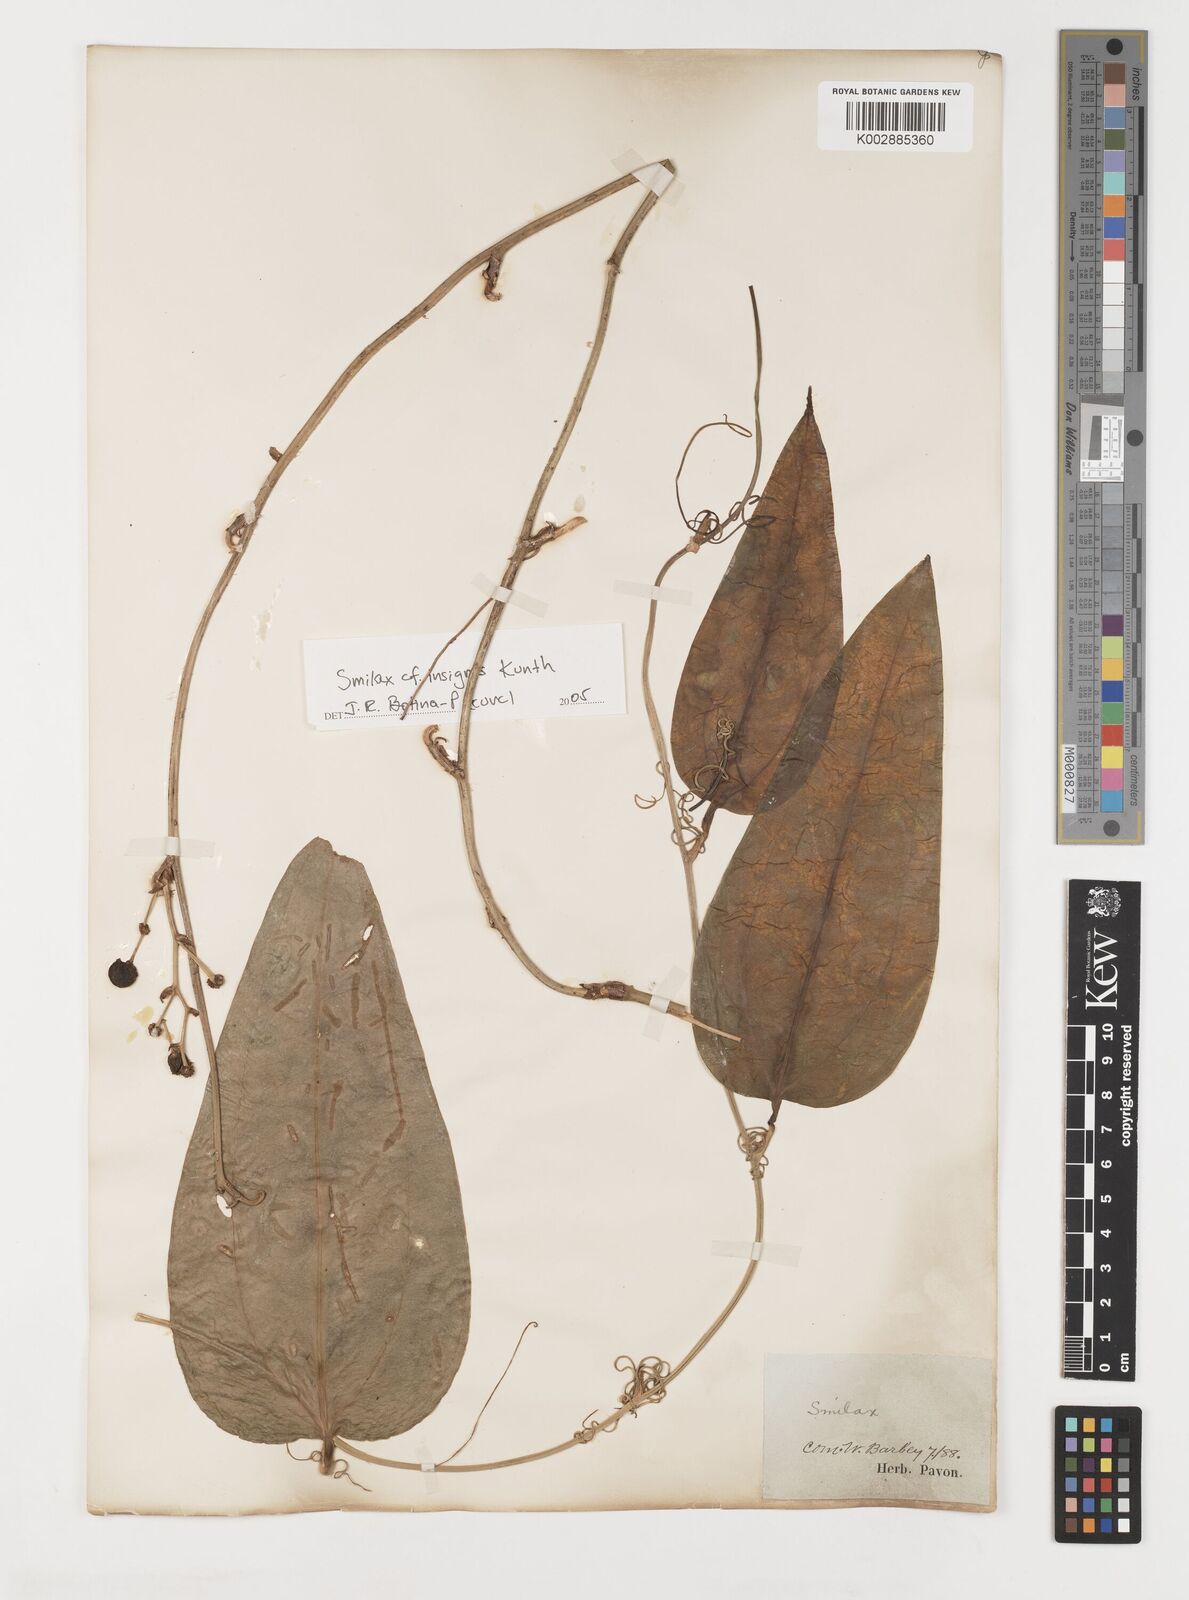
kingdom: Plantae
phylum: Tracheophyta
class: Liliopsida
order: Liliales
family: Smilacaceae
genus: Smilax
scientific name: Smilax
